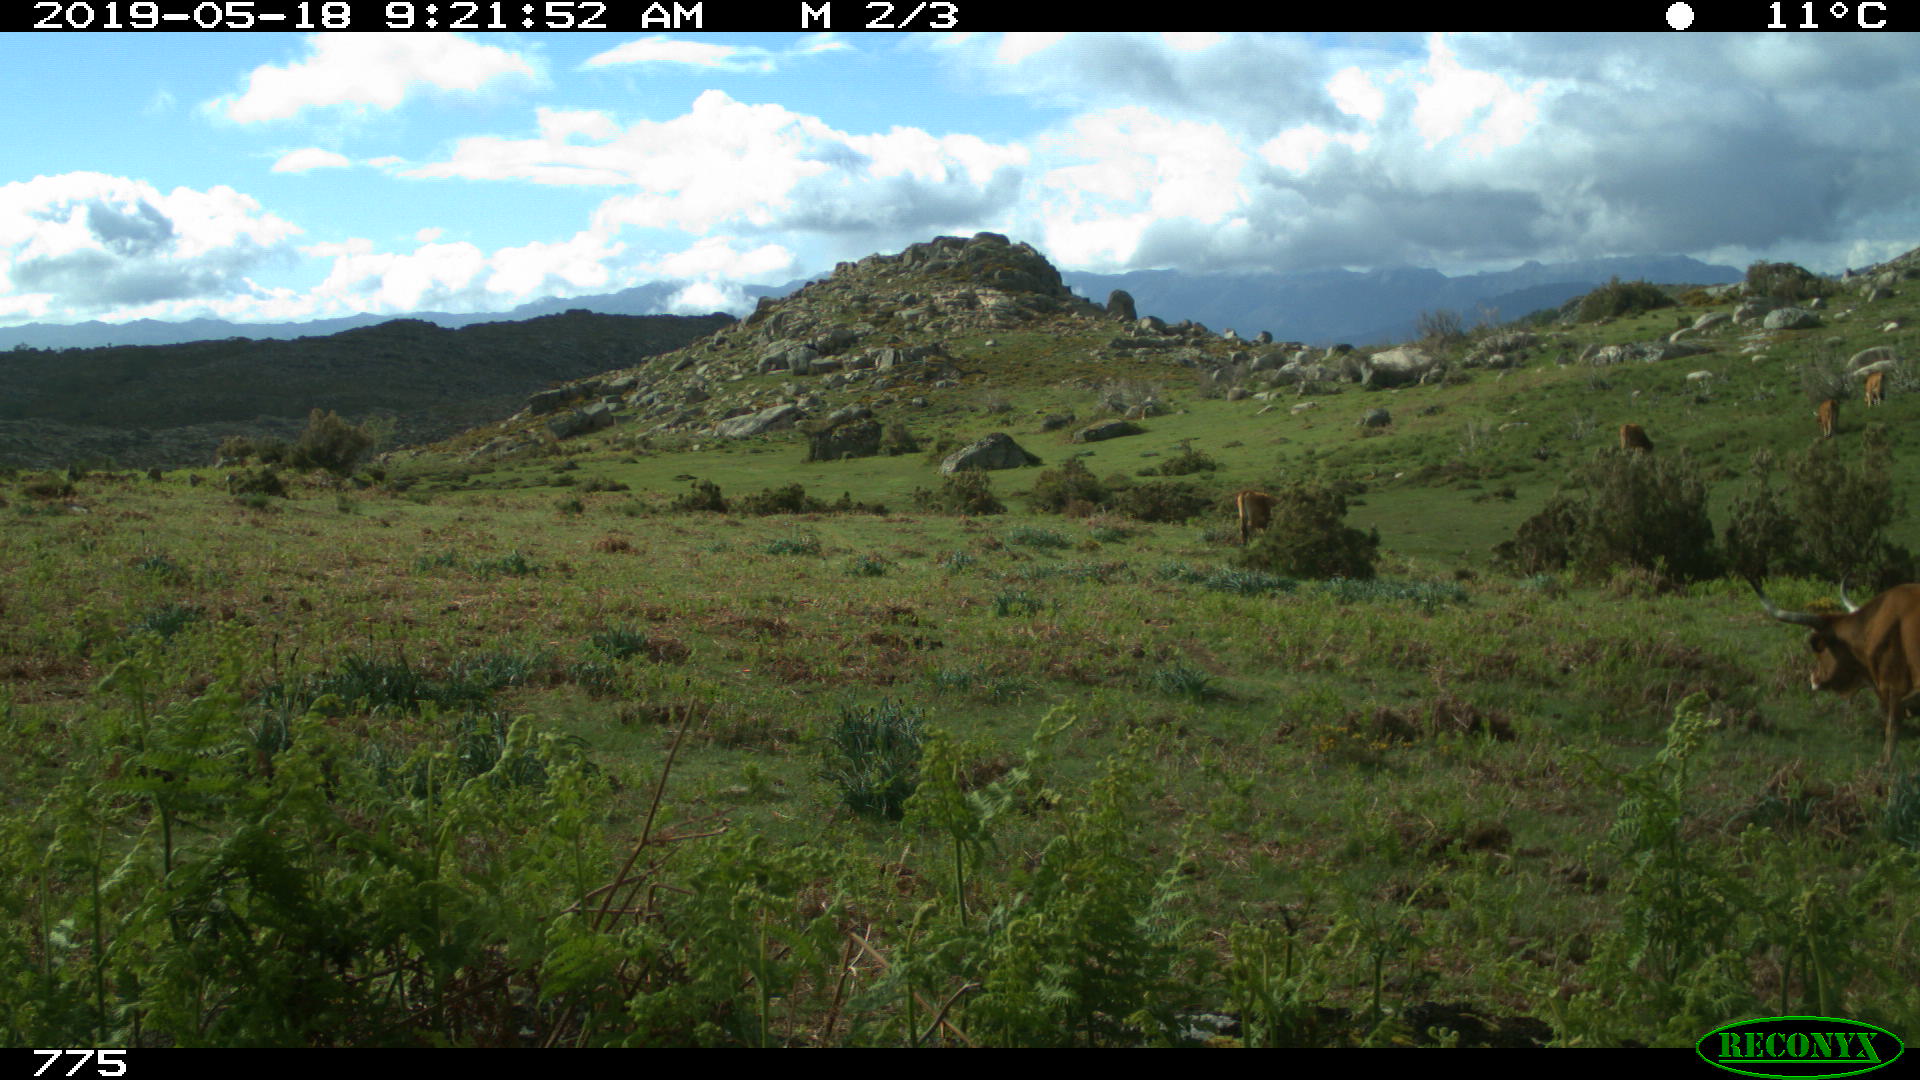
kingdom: Animalia
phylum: Chordata
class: Mammalia
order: Artiodactyla
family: Bovidae
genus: Bos
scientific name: Bos taurus
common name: Domesticated cattle
